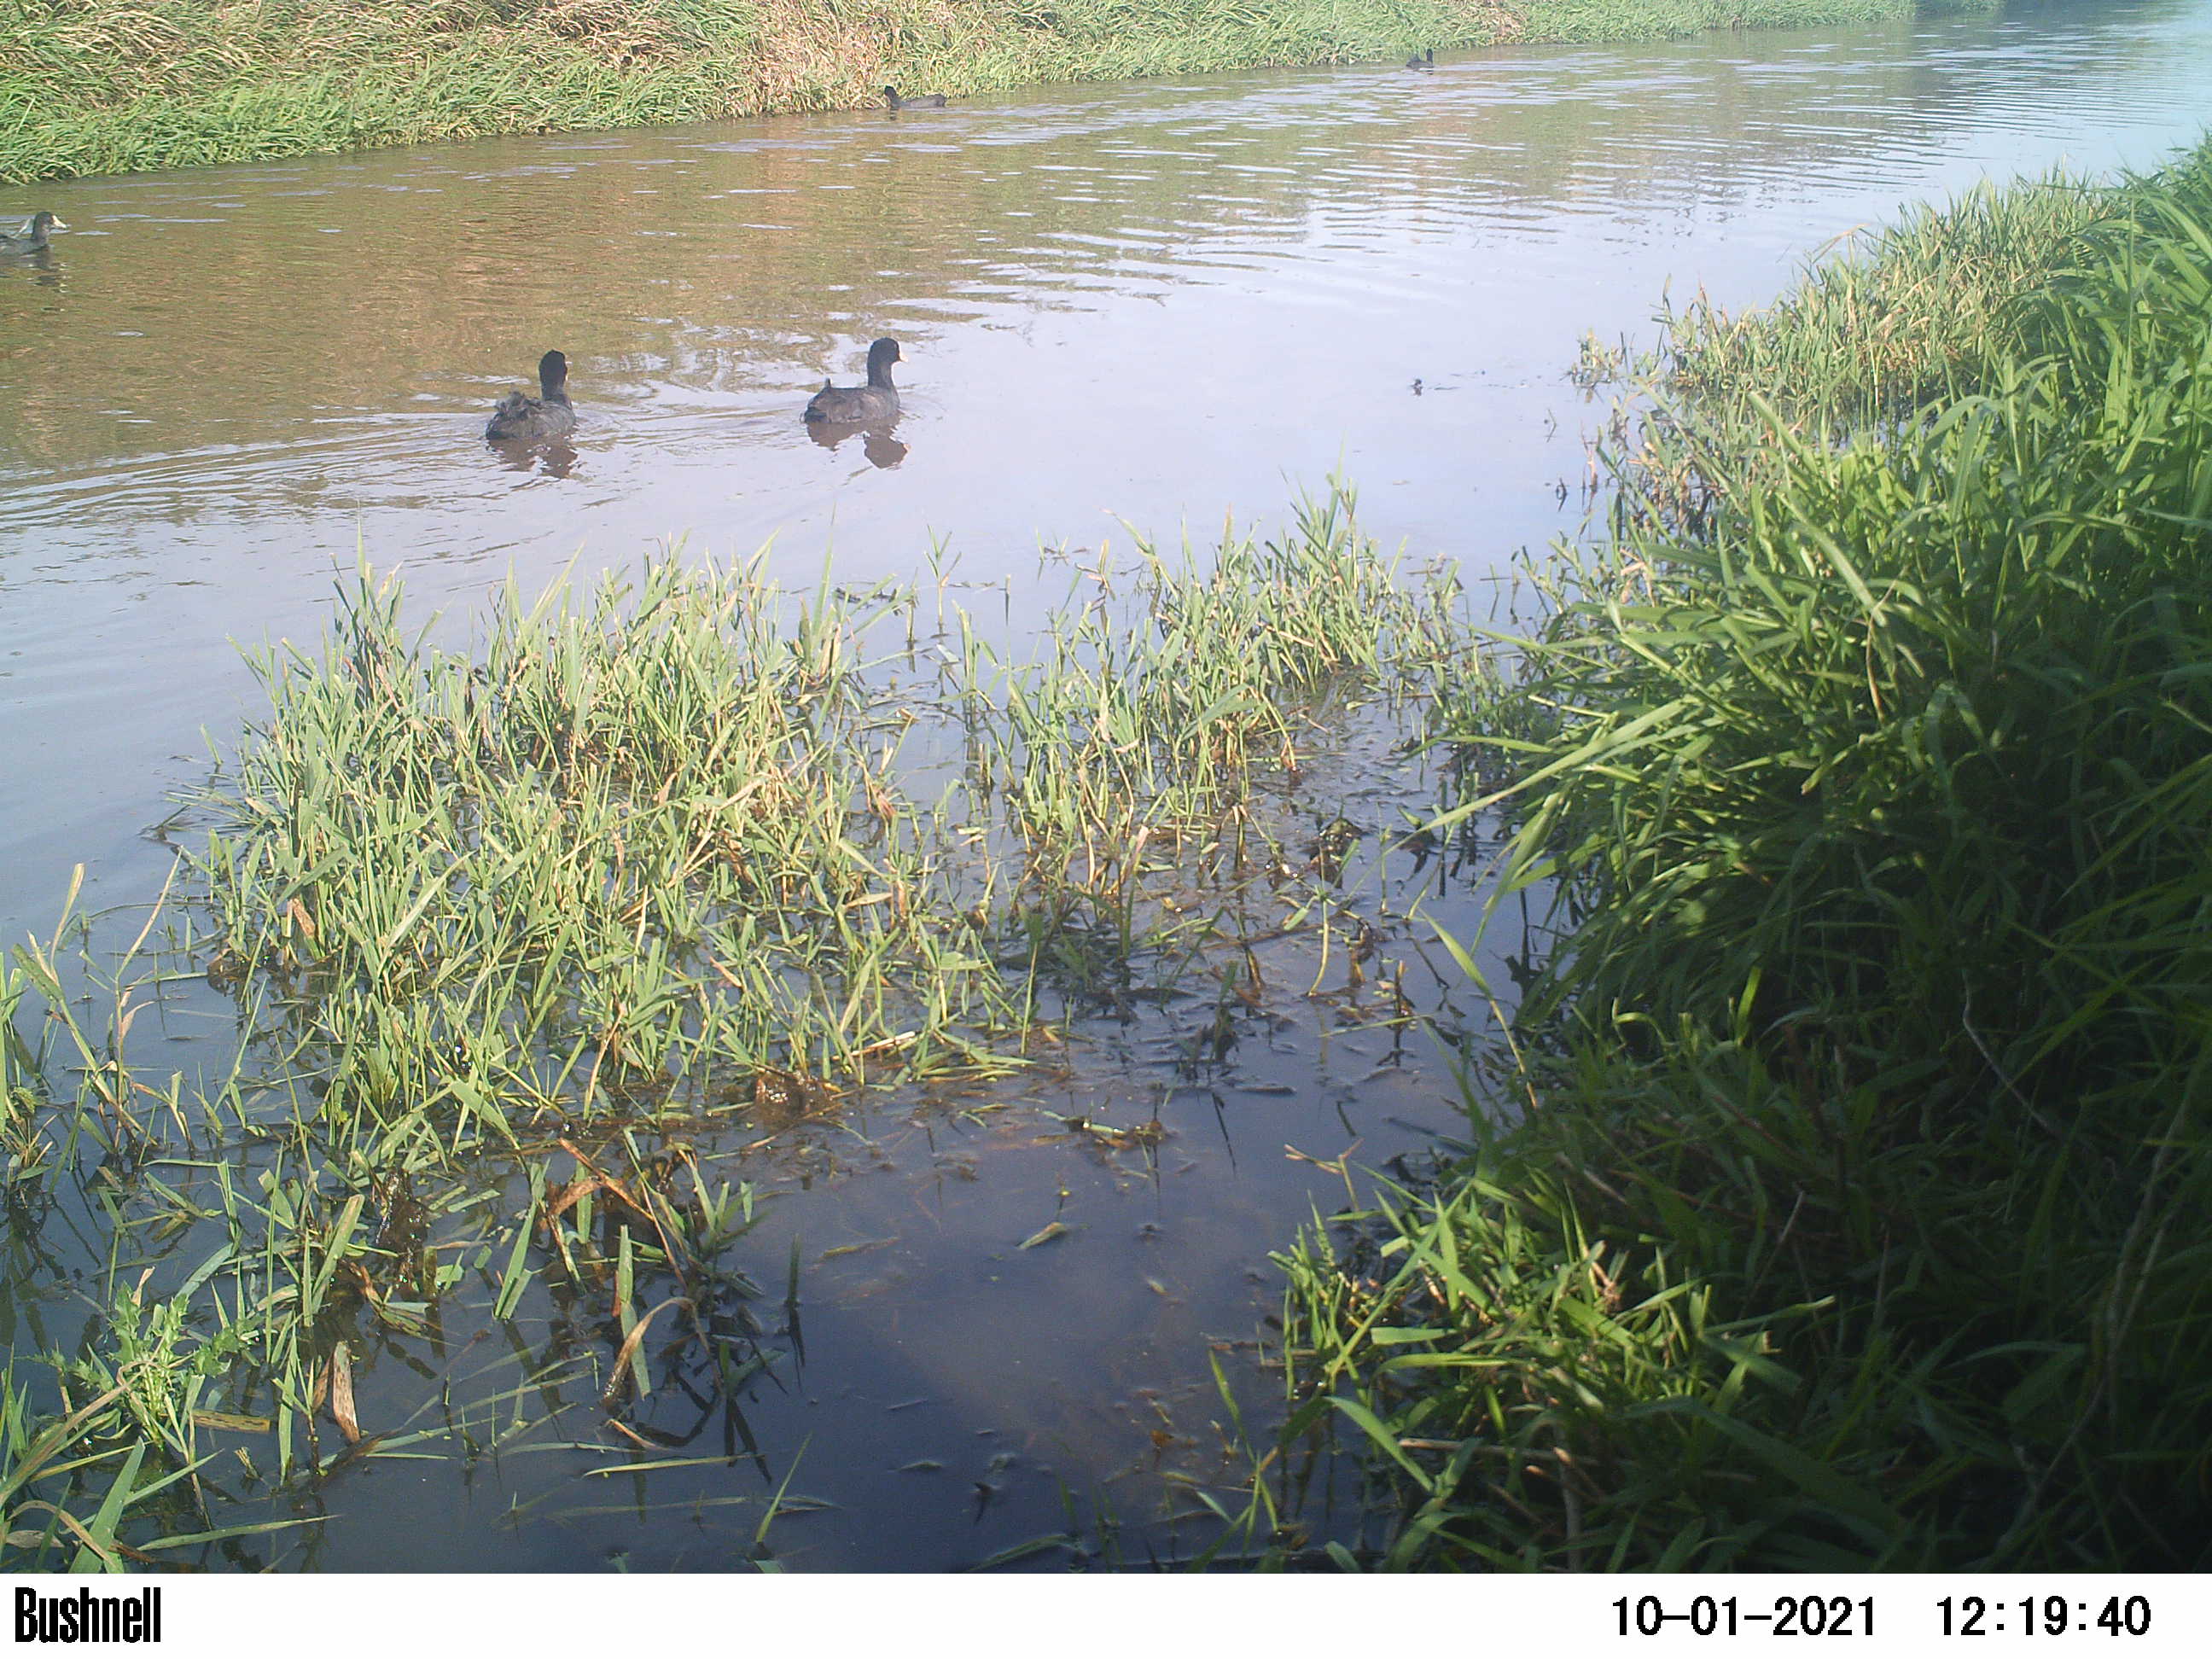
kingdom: Animalia
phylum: Chordata
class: Aves
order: Anseriformes
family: Anatidae
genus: Anas
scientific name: Anas
